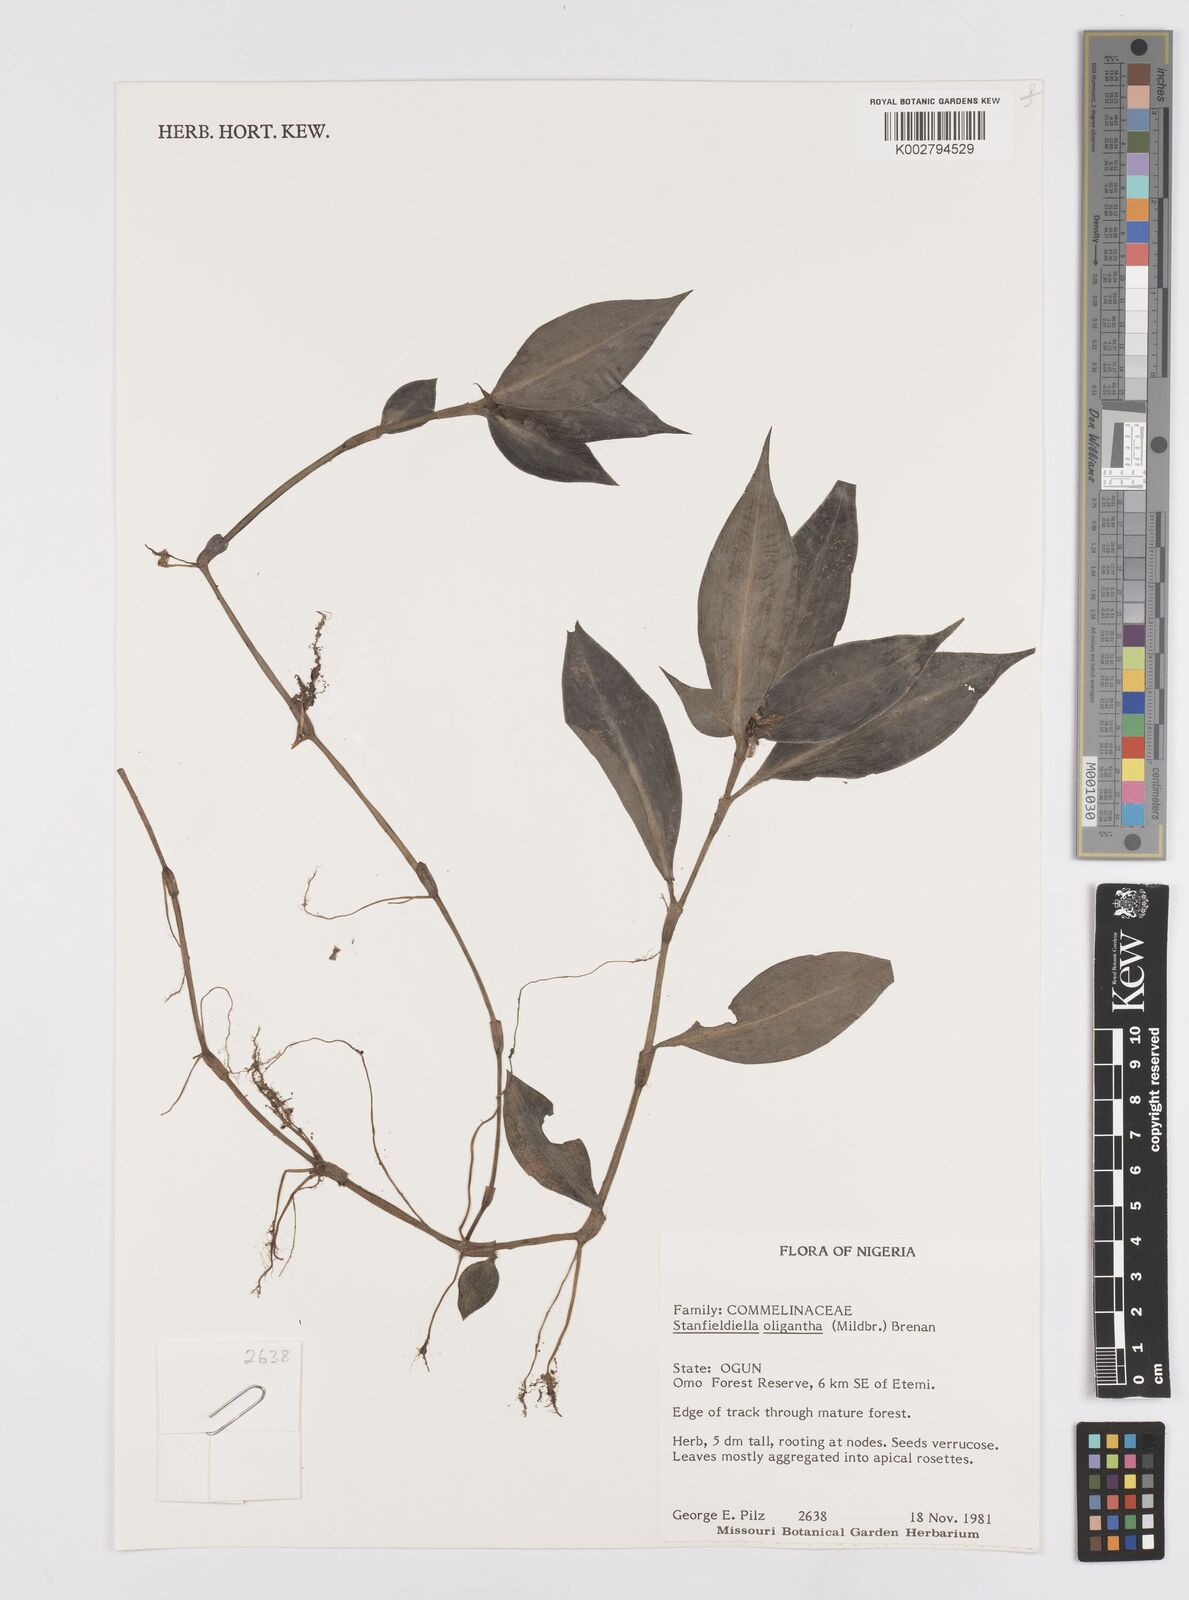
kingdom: Plantae
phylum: Tracheophyta
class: Liliopsida
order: Commelinales
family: Commelinaceae
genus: Stanfieldiella
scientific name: Stanfieldiella oligantha
